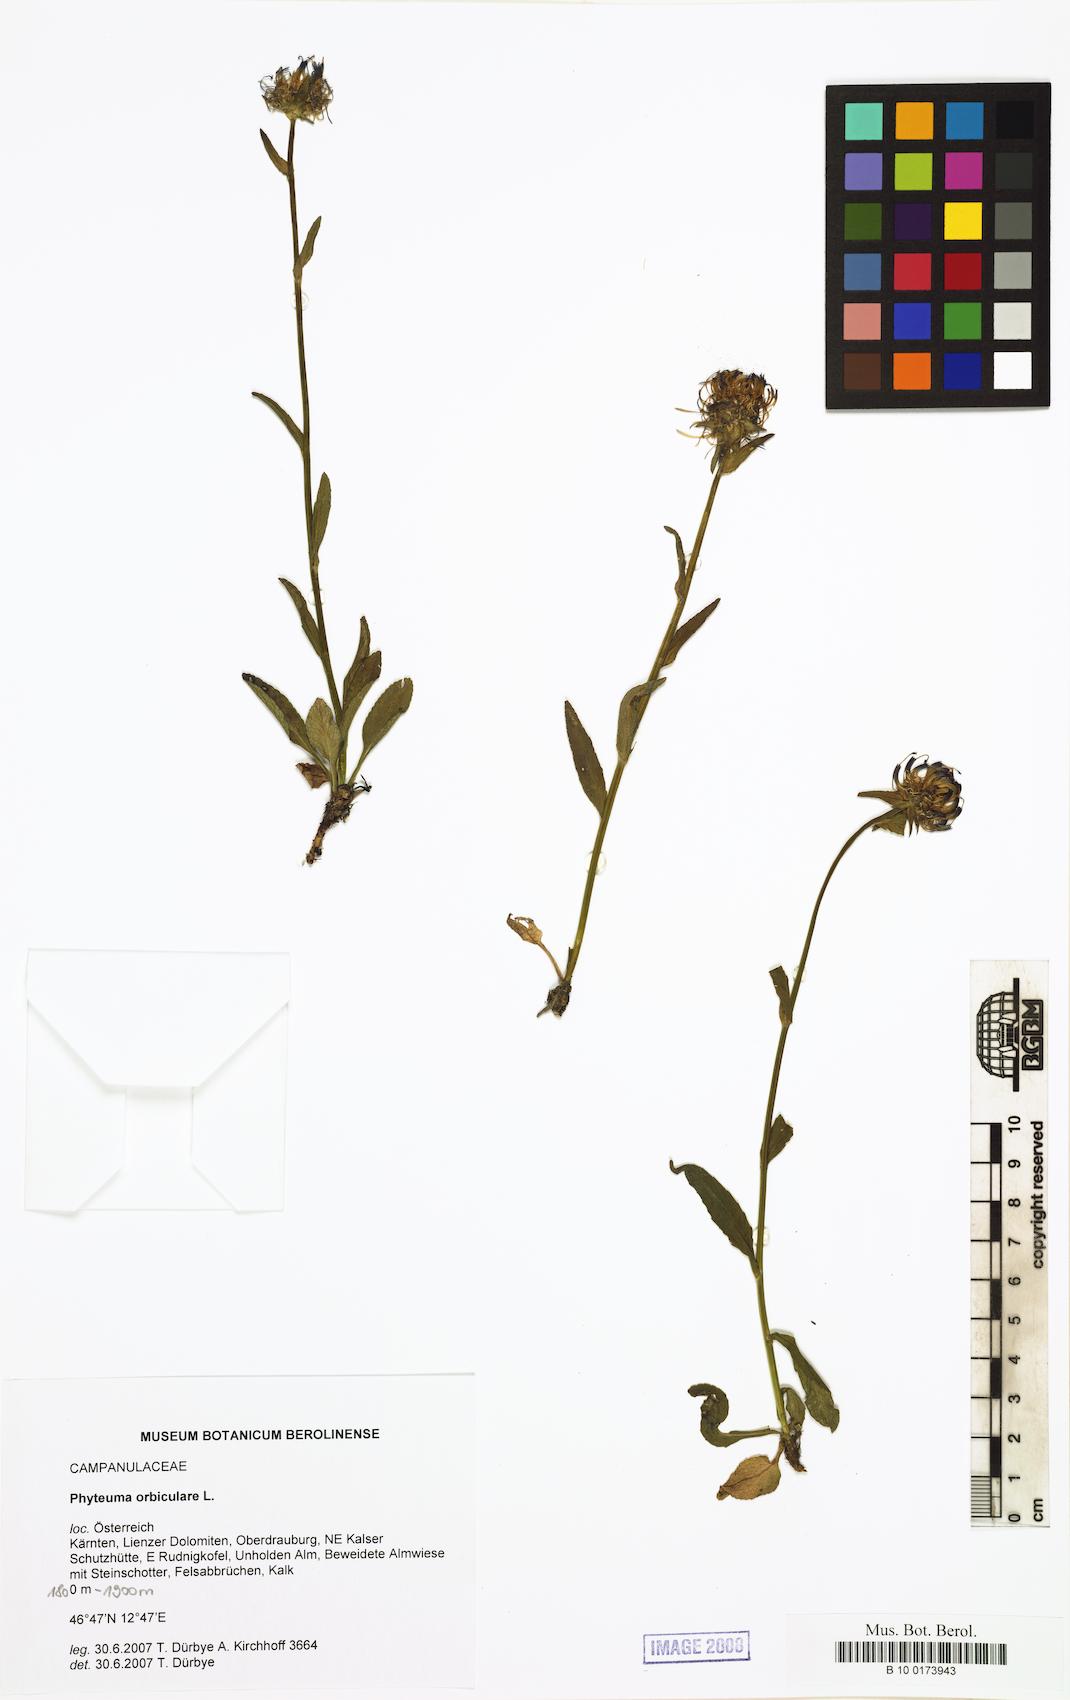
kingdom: Plantae
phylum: Tracheophyta
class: Magnoliopsida
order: Asterales
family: Campanulaceae
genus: Phyteuma
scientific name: Phyteuma orbiculare
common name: Round-headed rampion
